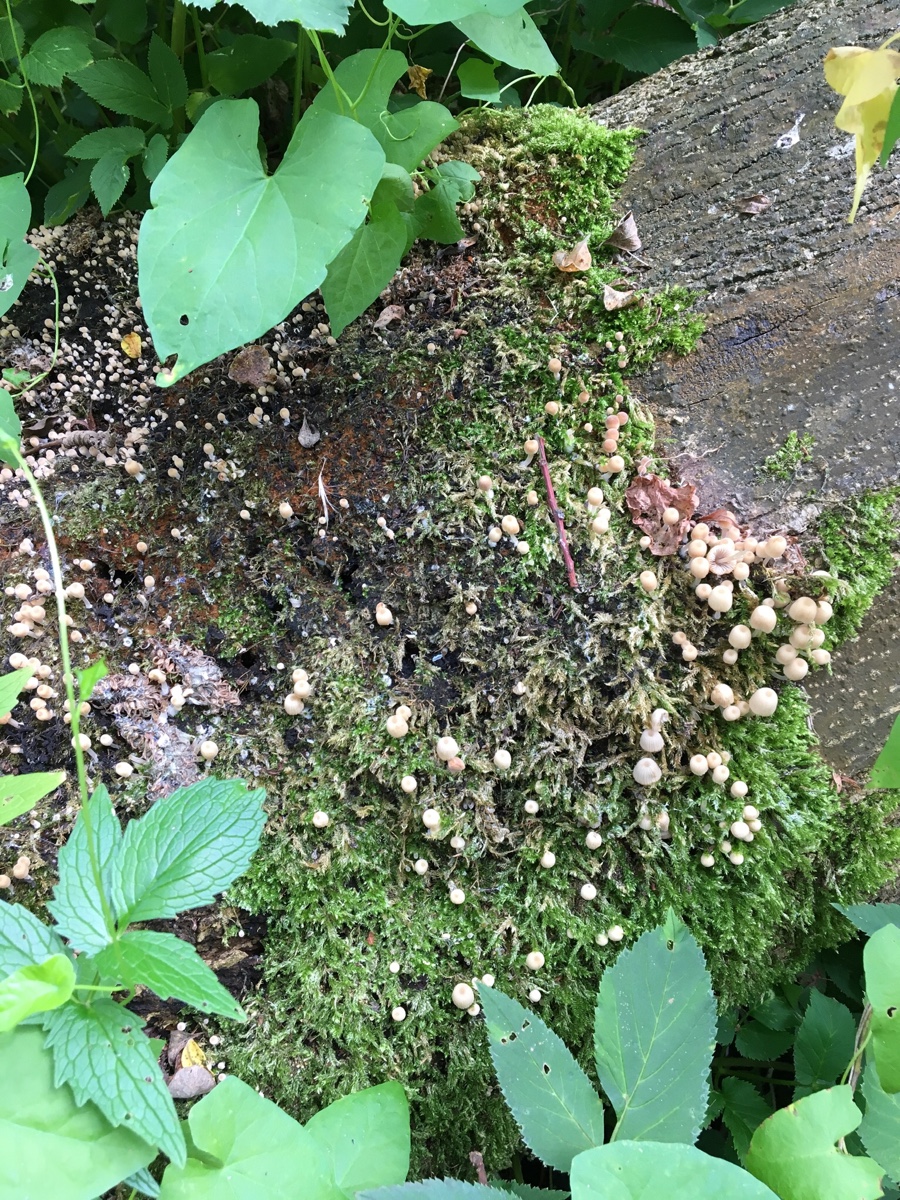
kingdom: Fungi
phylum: Basidiomycota
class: Agaricomycetes
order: Agaricales
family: Psathyrellaceae
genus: Coprinellus
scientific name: Coprinellus disseminatus
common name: bredsået blækhat
